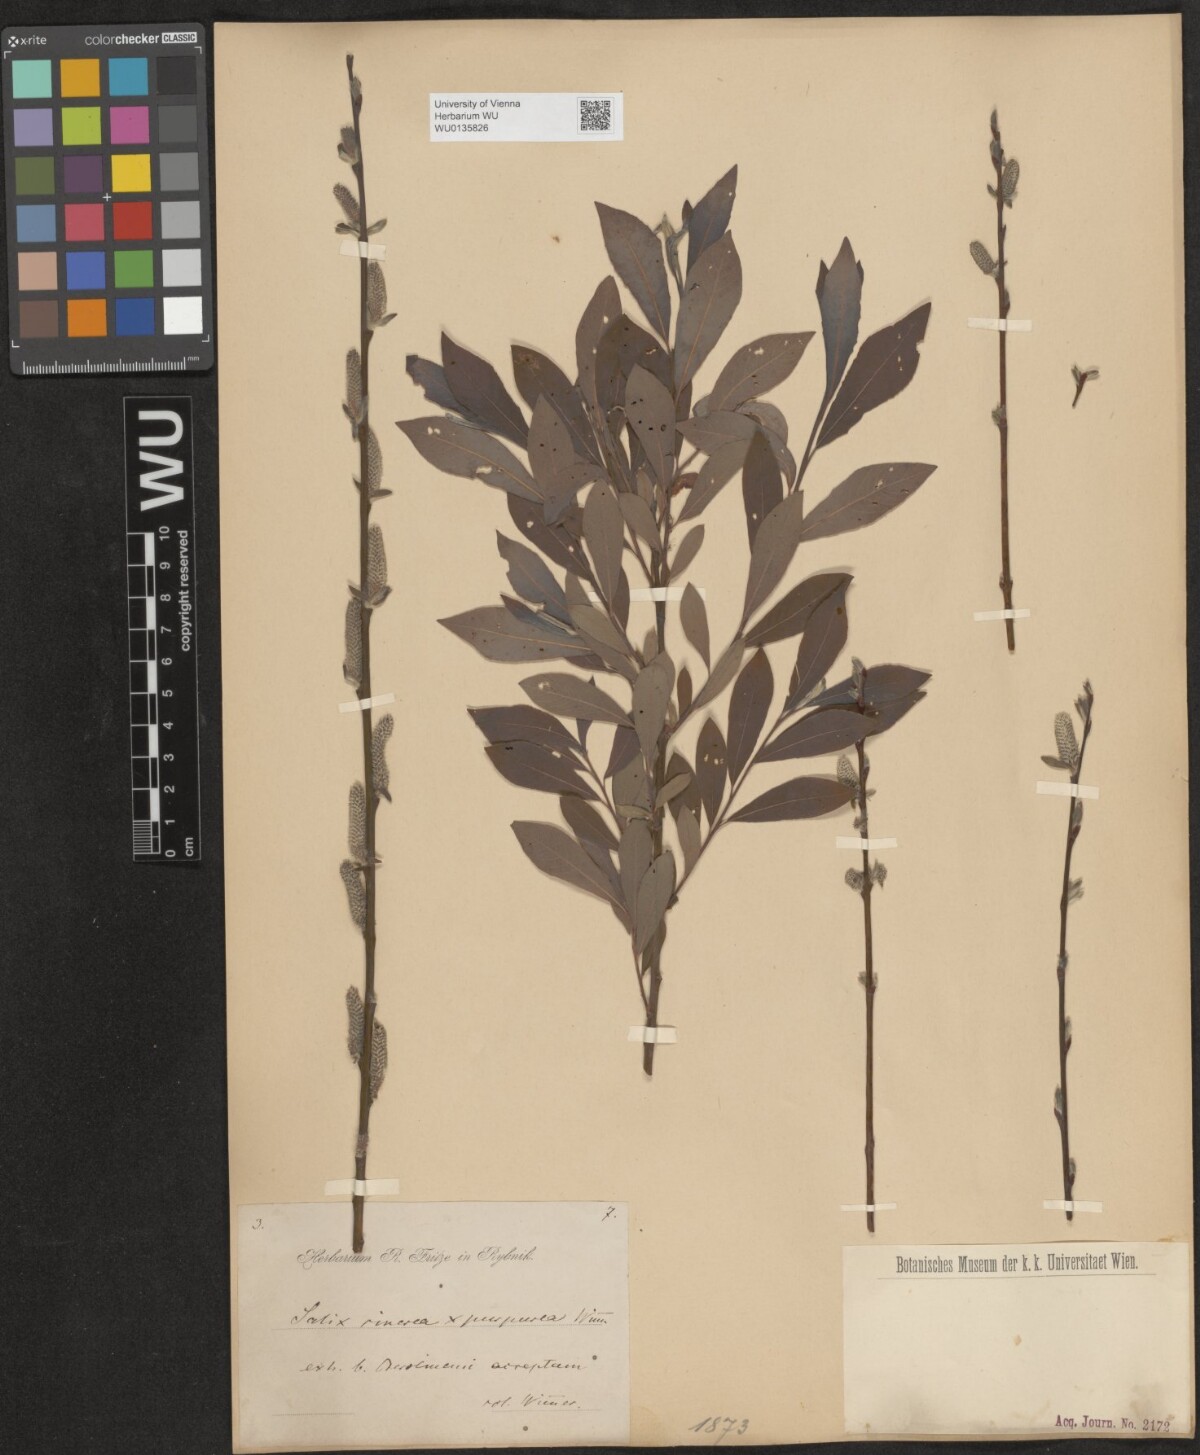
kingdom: Plantae
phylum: Tracheophyta
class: Magnoliopsida
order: Malpighiales
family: Salicaceae
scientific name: Salicaceae
